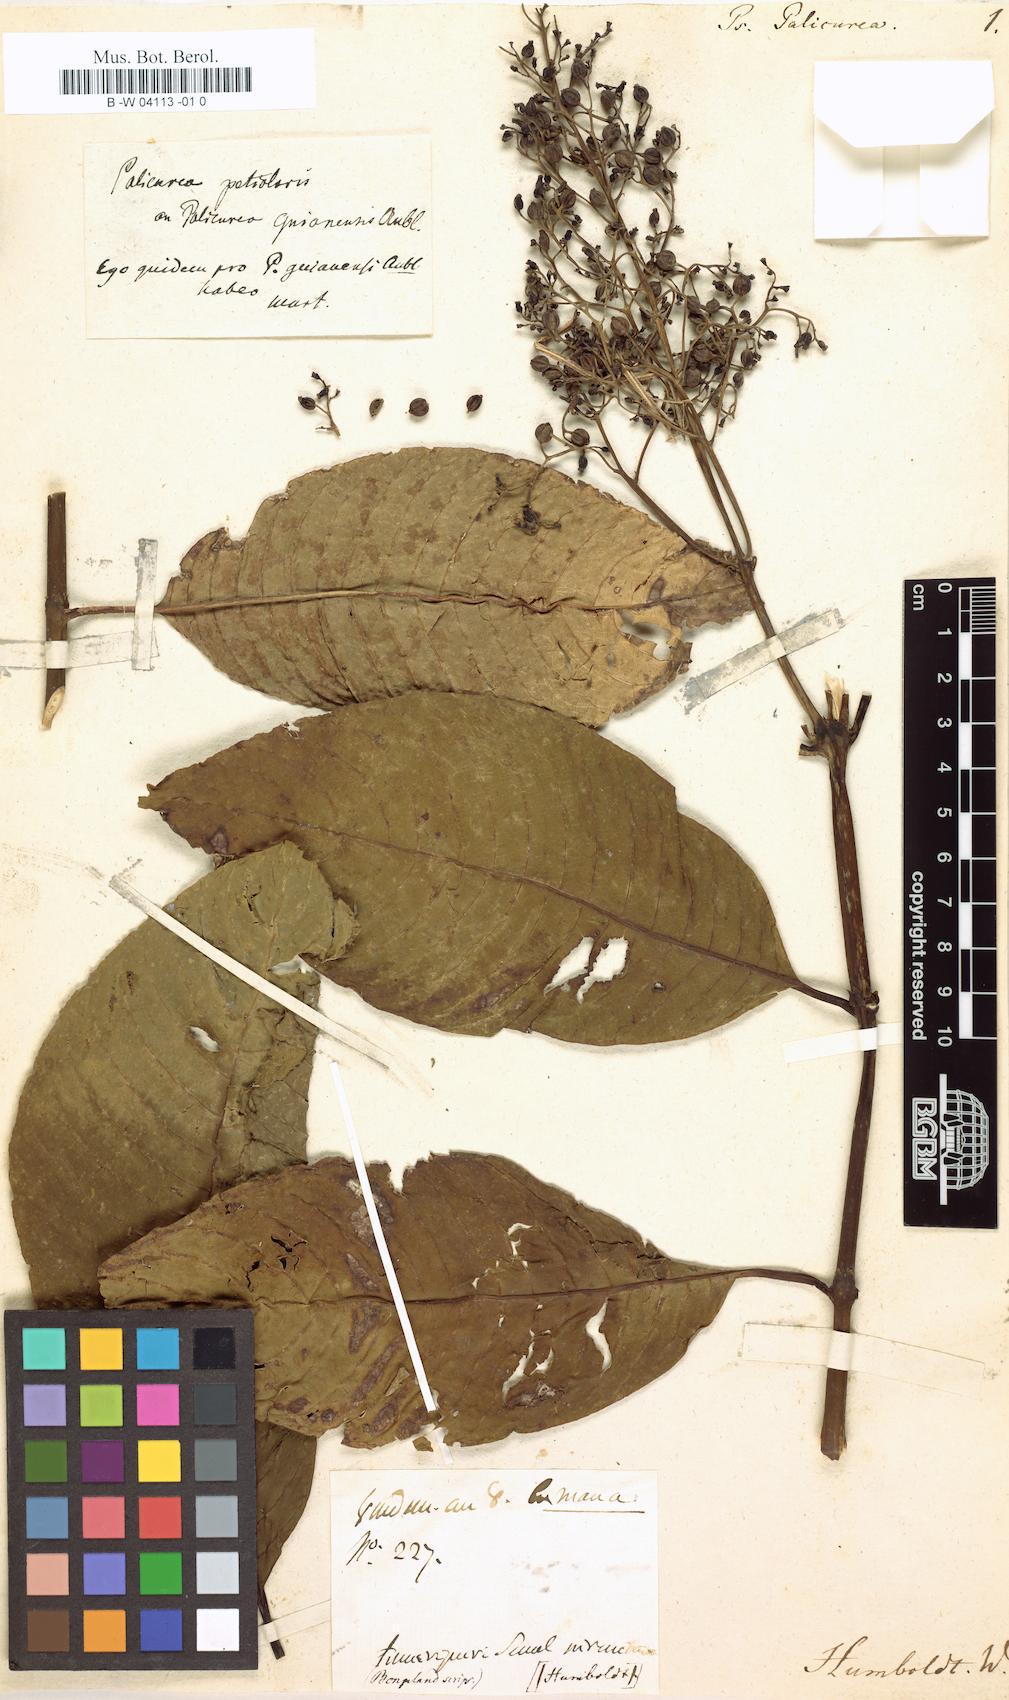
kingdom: Plantae
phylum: Tracheophyta
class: Magnoliopsida
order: Gentianales
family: Rubiaceae
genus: Psychotria
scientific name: Psychotria palicurea
